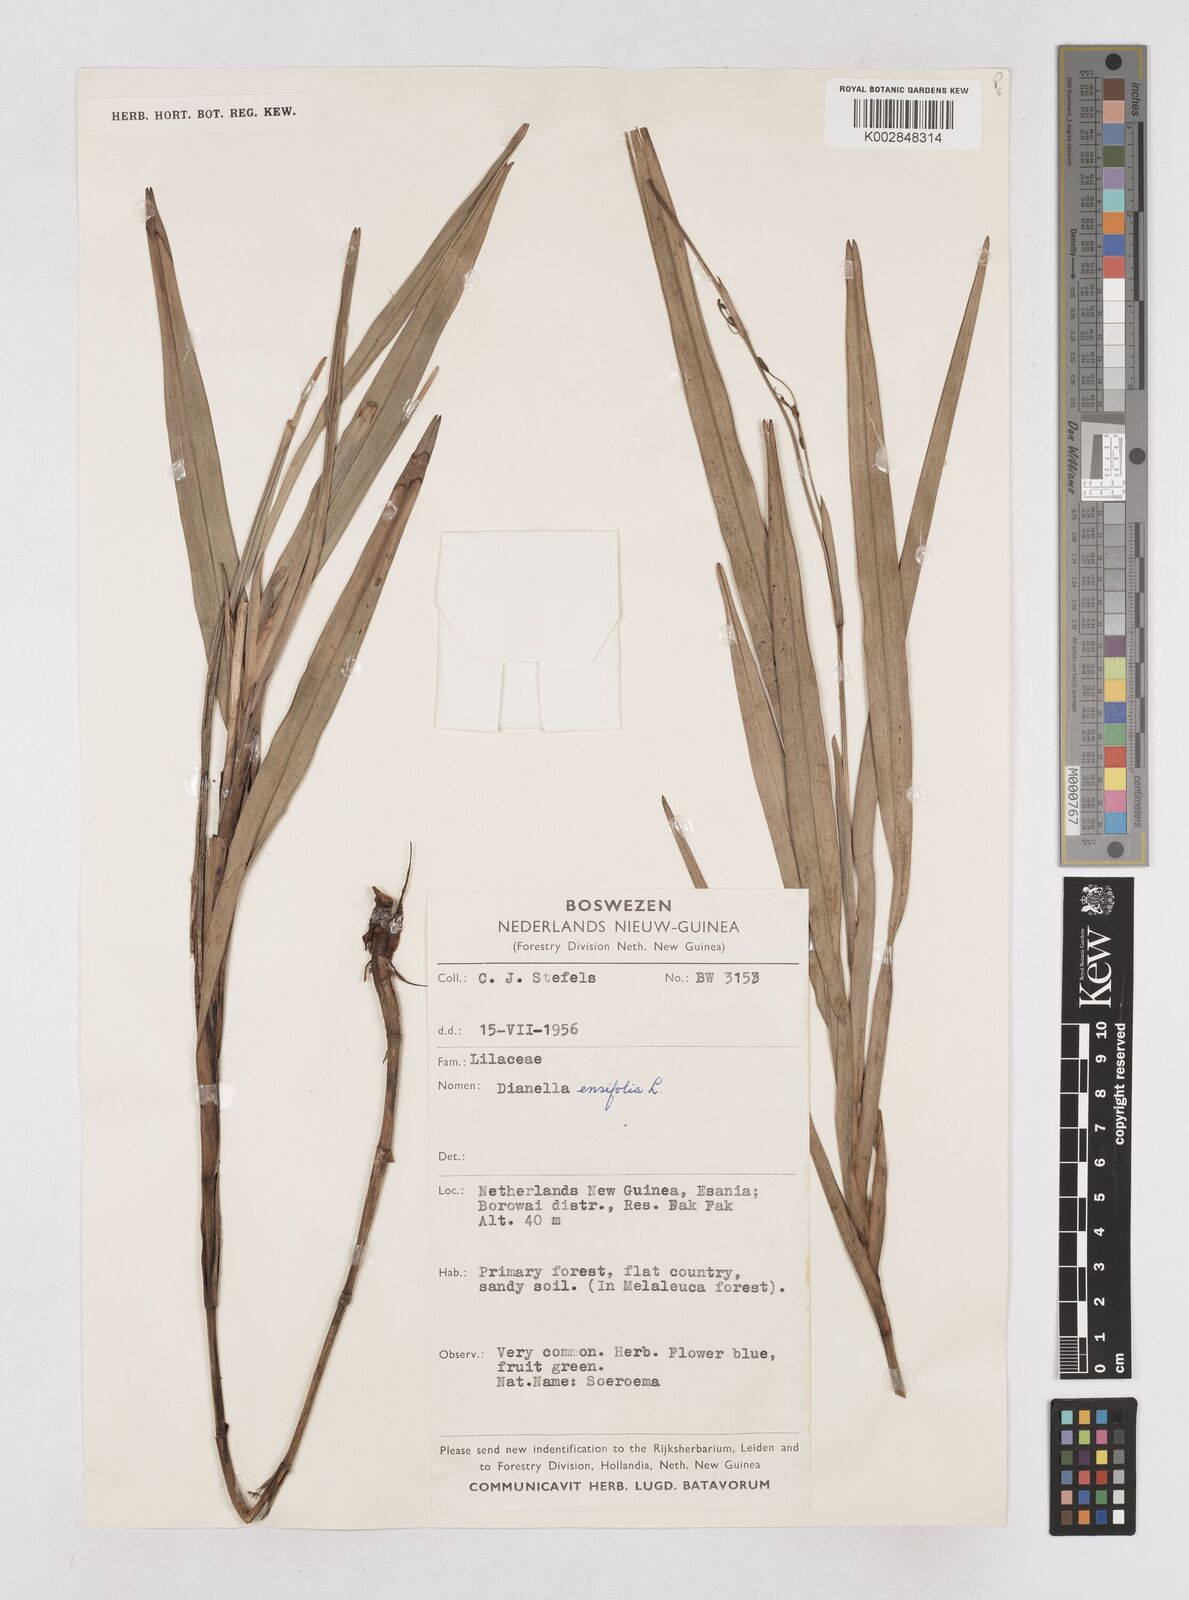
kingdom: Plantae
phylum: Tracheophyta
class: Liliopsida
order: Asparagales
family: Asphodelaceae
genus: Dianella
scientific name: Dianella ensifolia
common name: New zealand lilyplant
